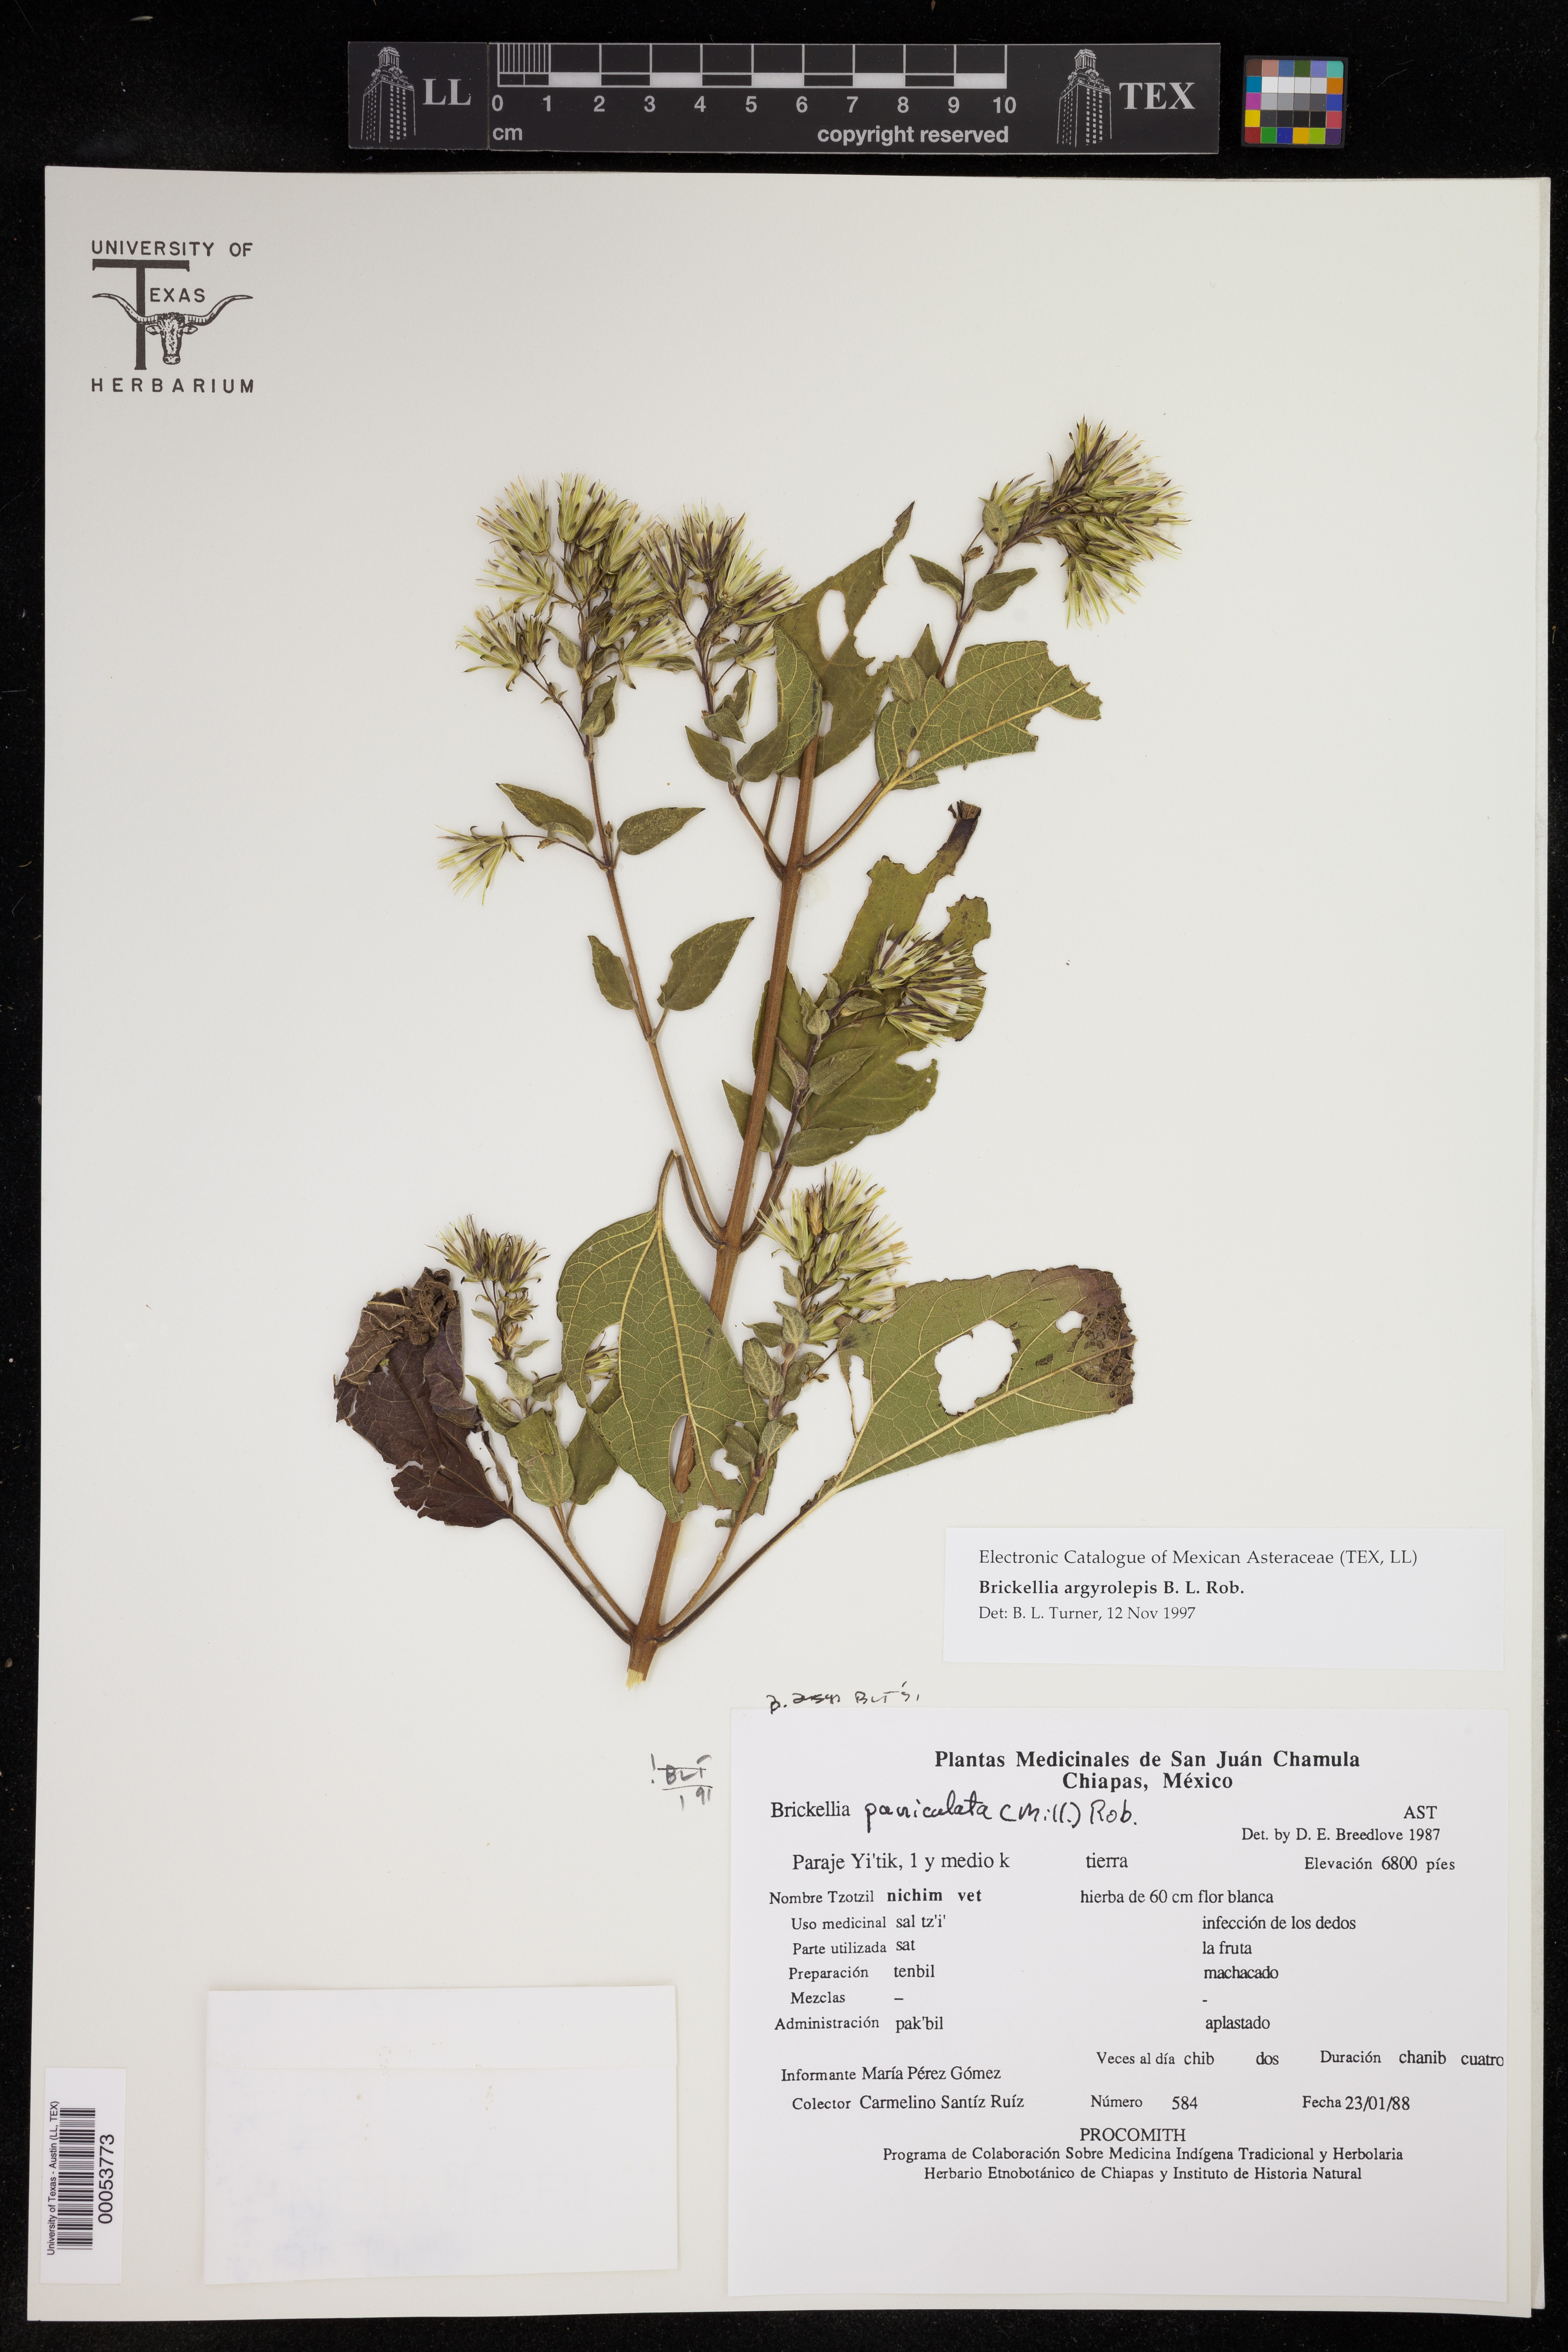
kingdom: Plantae
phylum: Tracheophyta
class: Magnoliopsida
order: Asterales
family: Asteraceae
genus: Brickellia
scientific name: Brickellia argyrolepis
